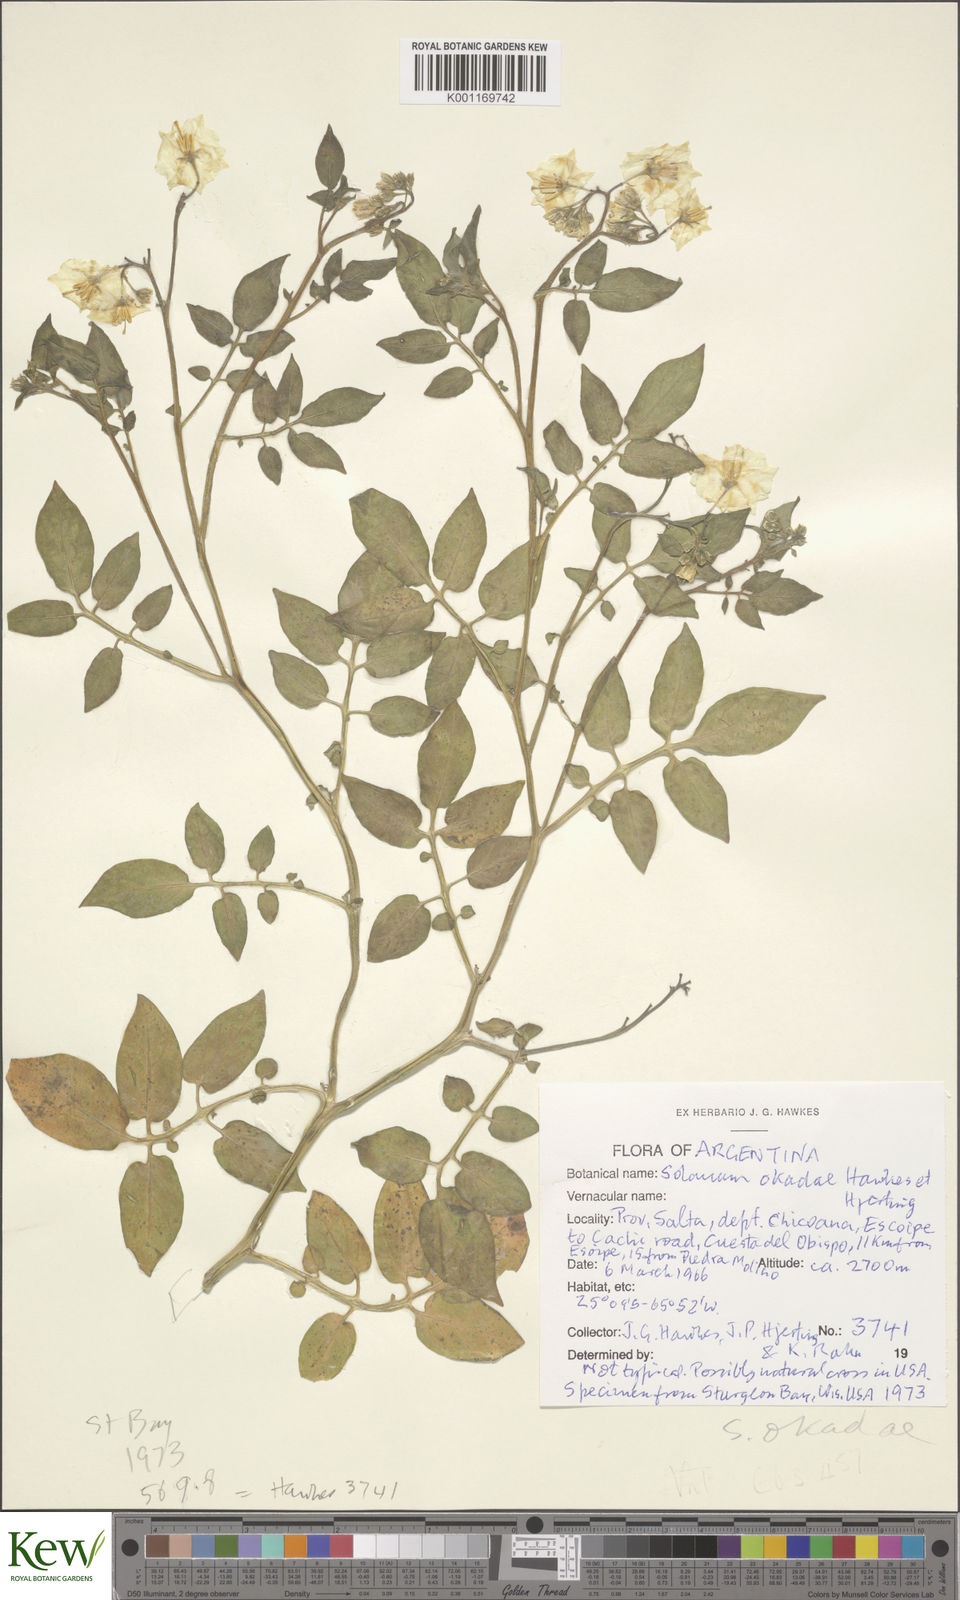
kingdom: Plantae
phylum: Tracheophyta
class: Magnoliopsida
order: Solanales
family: Solanaceae
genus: Solanum
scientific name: Solanum okadae
